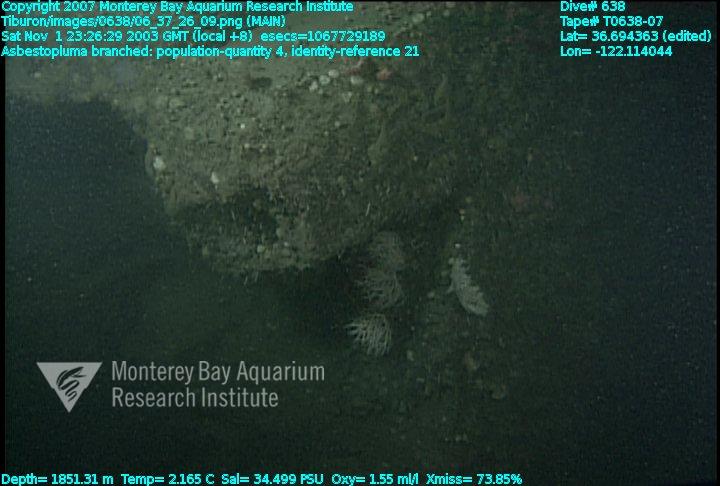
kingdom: Animalia
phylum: Porifera
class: Demospongiae
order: Poecilosclerida
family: Cladorhizidae
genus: Asbestopluma
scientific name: Asbestopluma monticola
